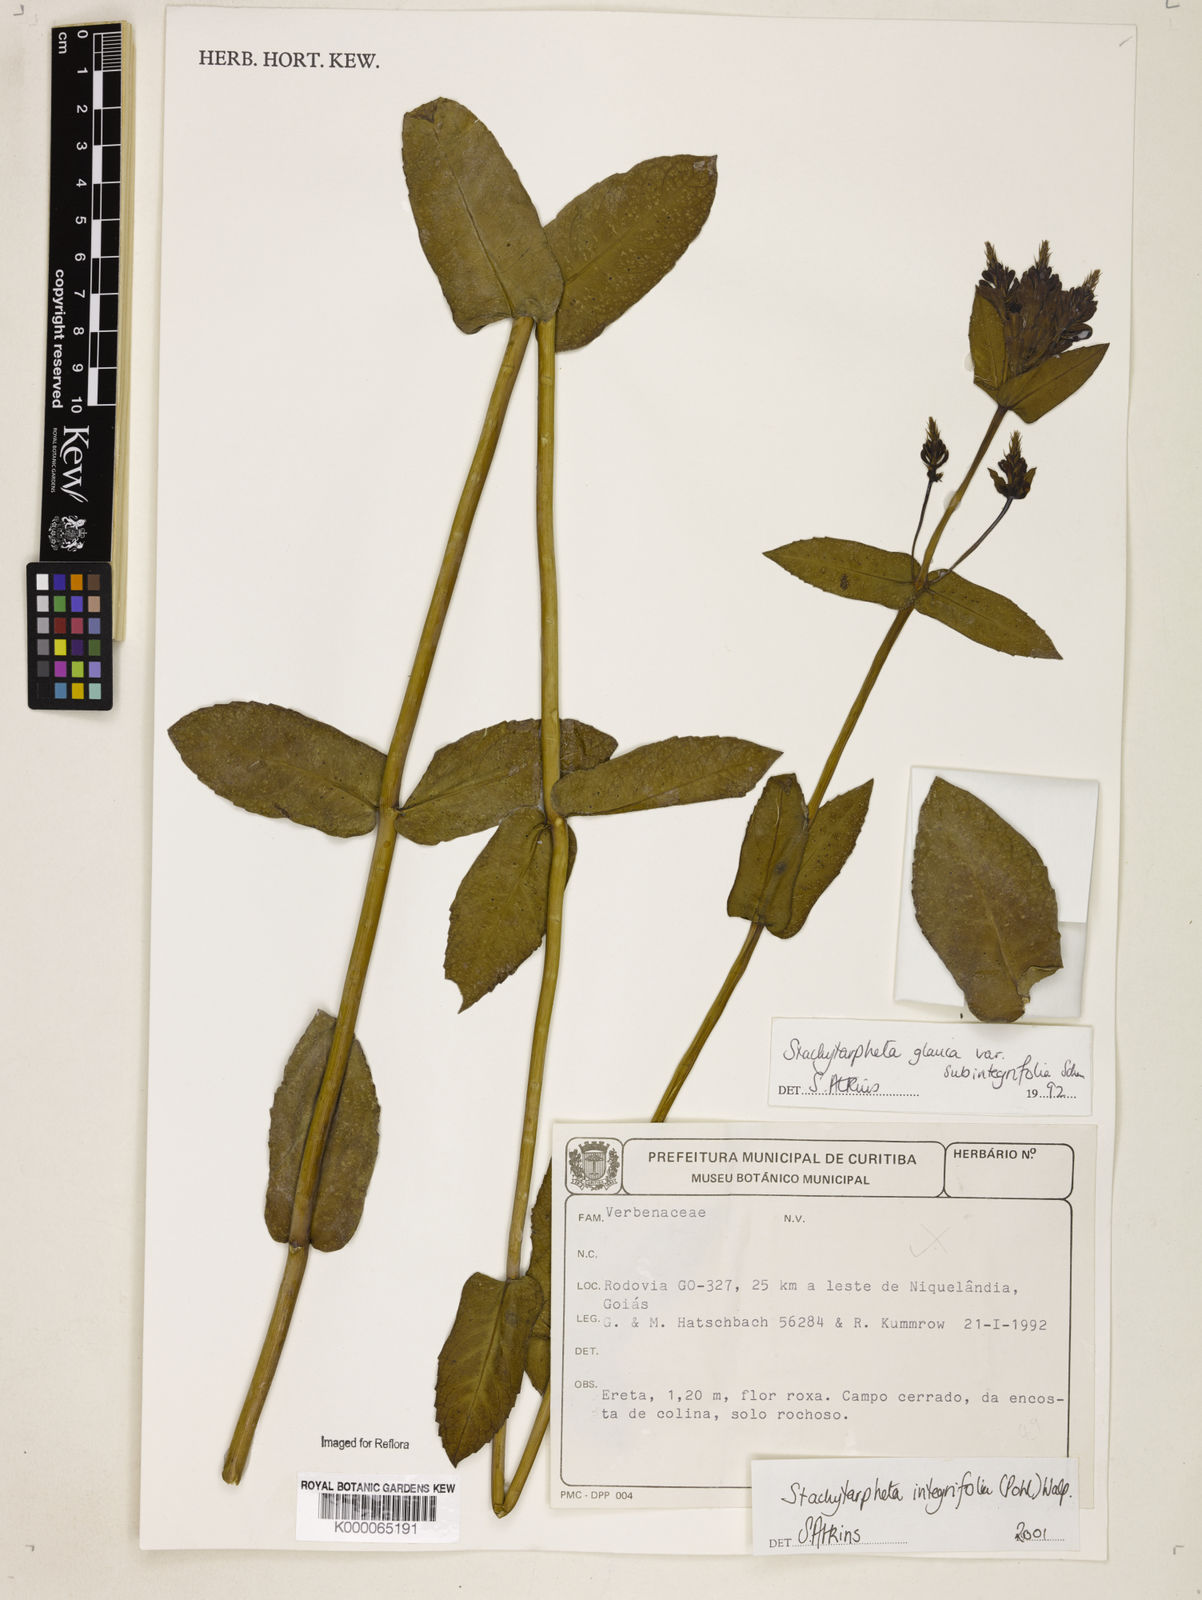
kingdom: Plantae
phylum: Tracheophyta
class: Magnoliopsida
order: Lamiales
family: Verbenaceae
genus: Stachytarpheta
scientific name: Stachytarpheta integrifolia
